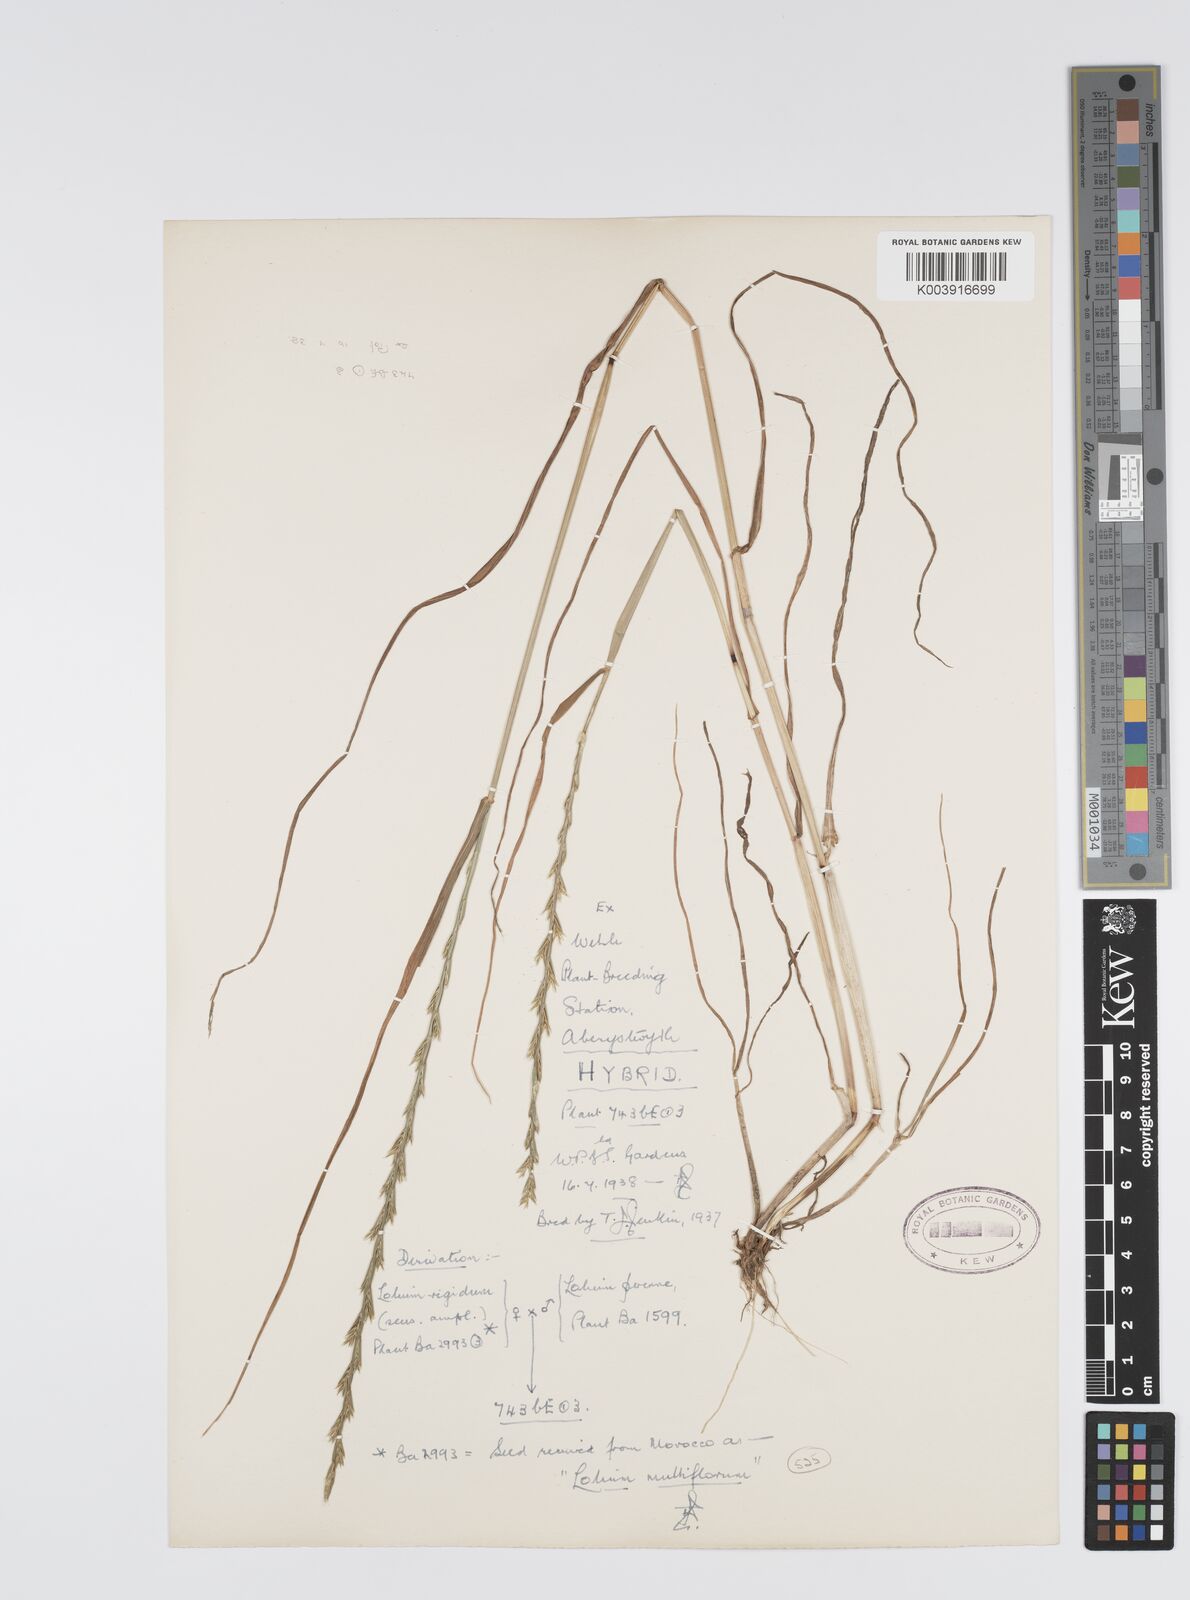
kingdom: Plantae
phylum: Tracheophyta
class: Liliopsida
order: Poales
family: Poaceae
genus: Lolium
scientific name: Lolium perenne
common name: Perennial ryegrass
